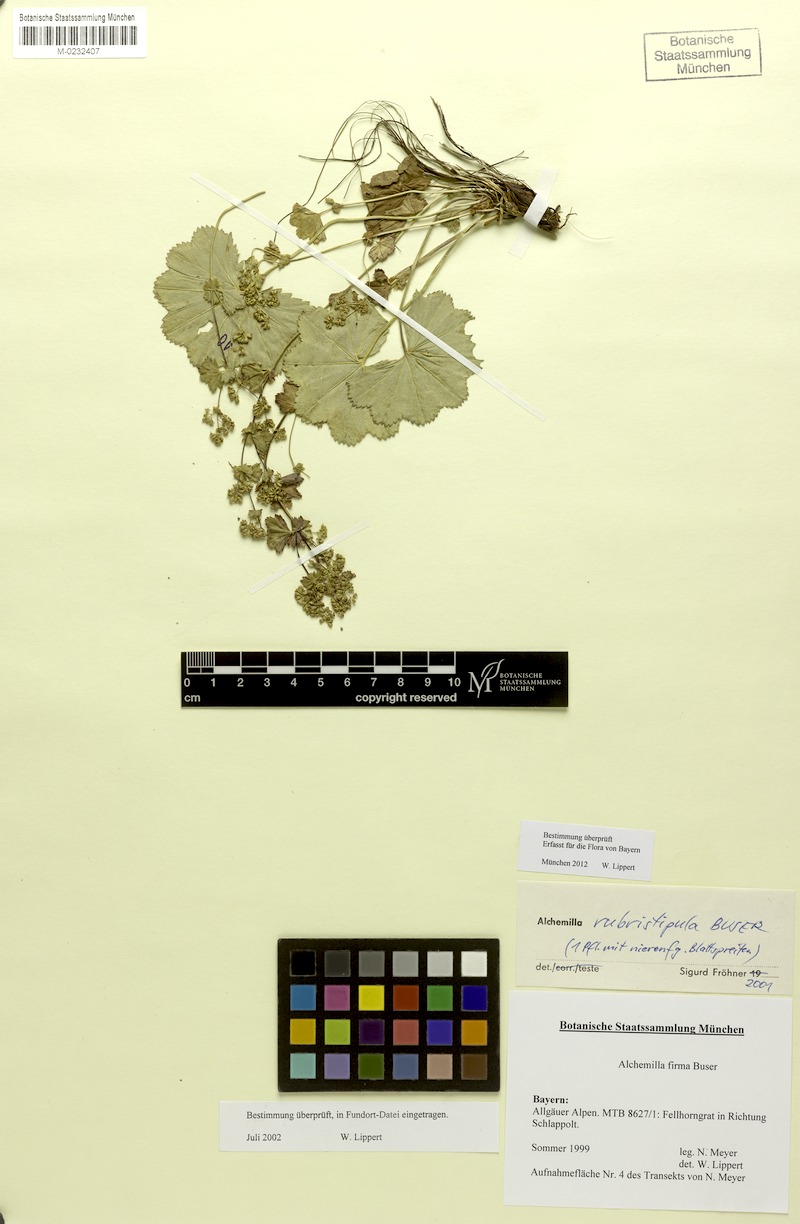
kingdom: Plantae
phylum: Tracheophyta
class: Magnoliopsida
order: Rosales
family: Rosaceae
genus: Alchemilla
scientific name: Alchemilla rubristipula
